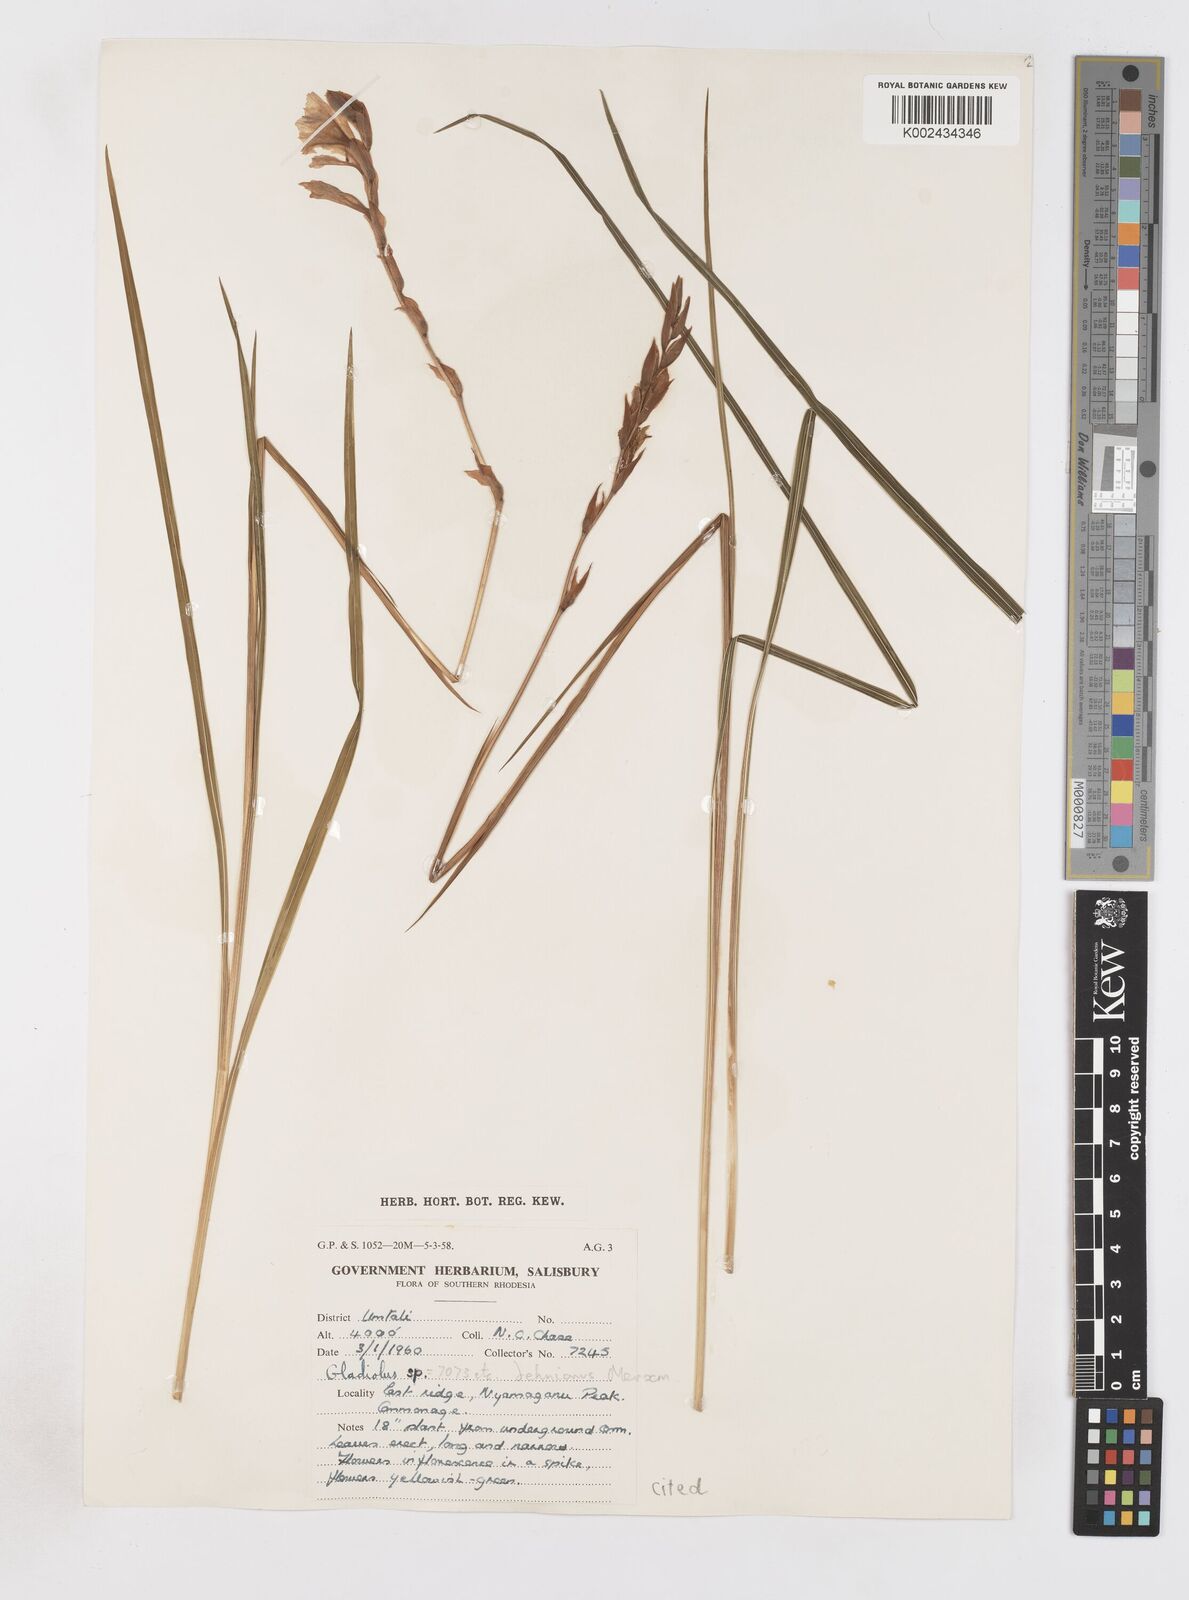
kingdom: Plantae
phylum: Tracheophyta
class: Liliopsida
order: Asparagales
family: Iridaceae
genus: Gladiolus
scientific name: Gladiolus sericeovillosus
